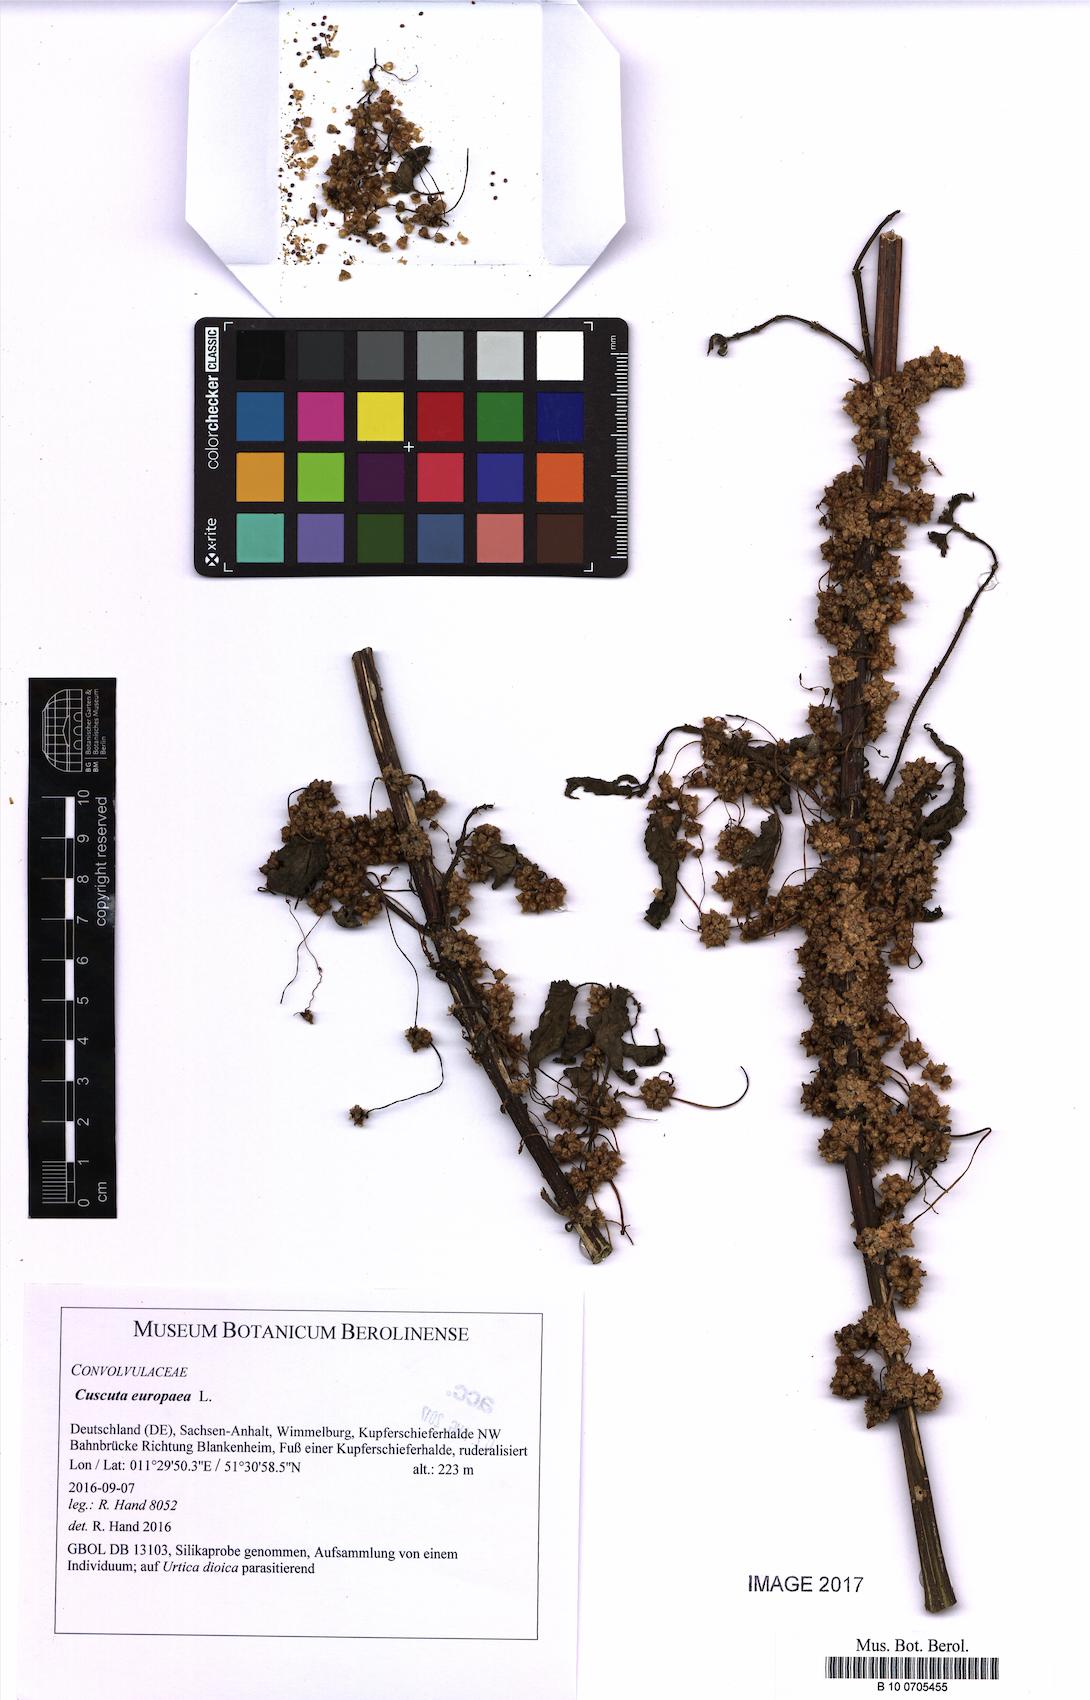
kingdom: Plantae
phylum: Tracheophyta
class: Magnoliopsida
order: Solanales
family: Convolvulaceae
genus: Cuscuta
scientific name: Cuscuta europaea
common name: Greater dodder
